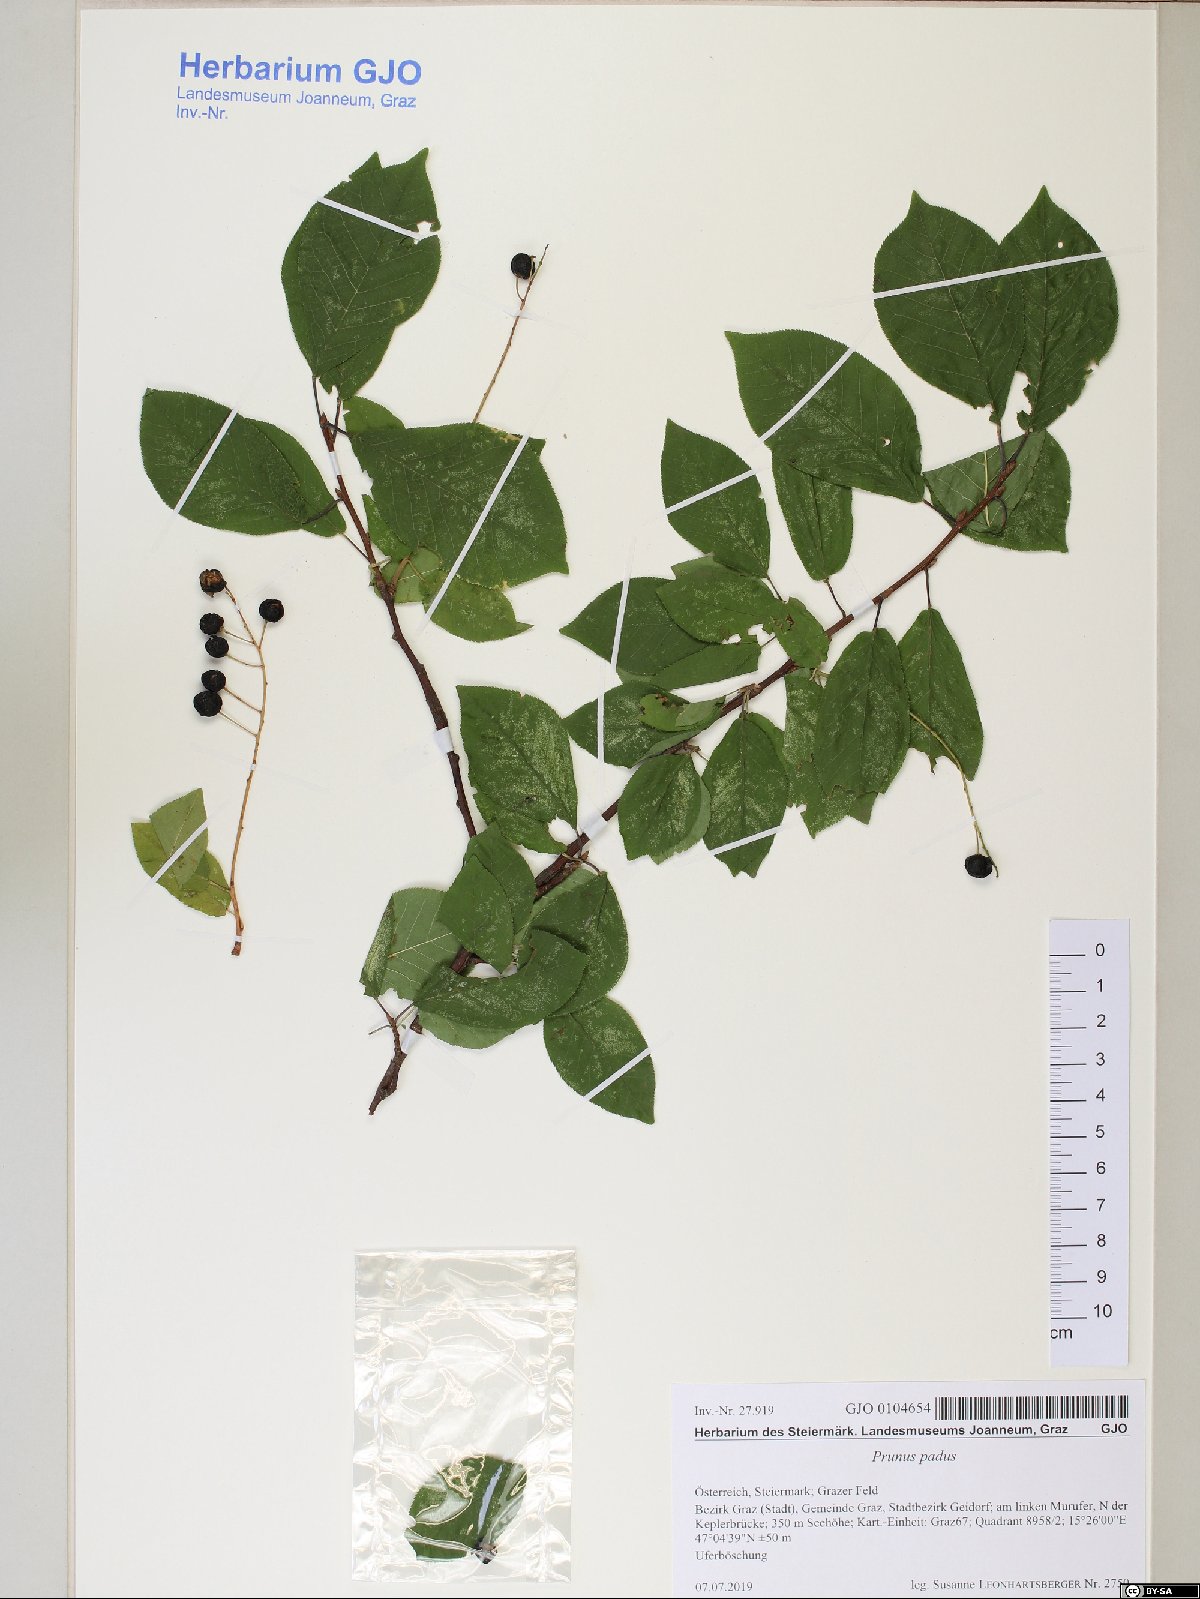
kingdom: Plantae
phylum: Tracheophyta
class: Magnoliopsida
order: Rosales
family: Rosaceae
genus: Prunus
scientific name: Prunus padus
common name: Bird cherry
